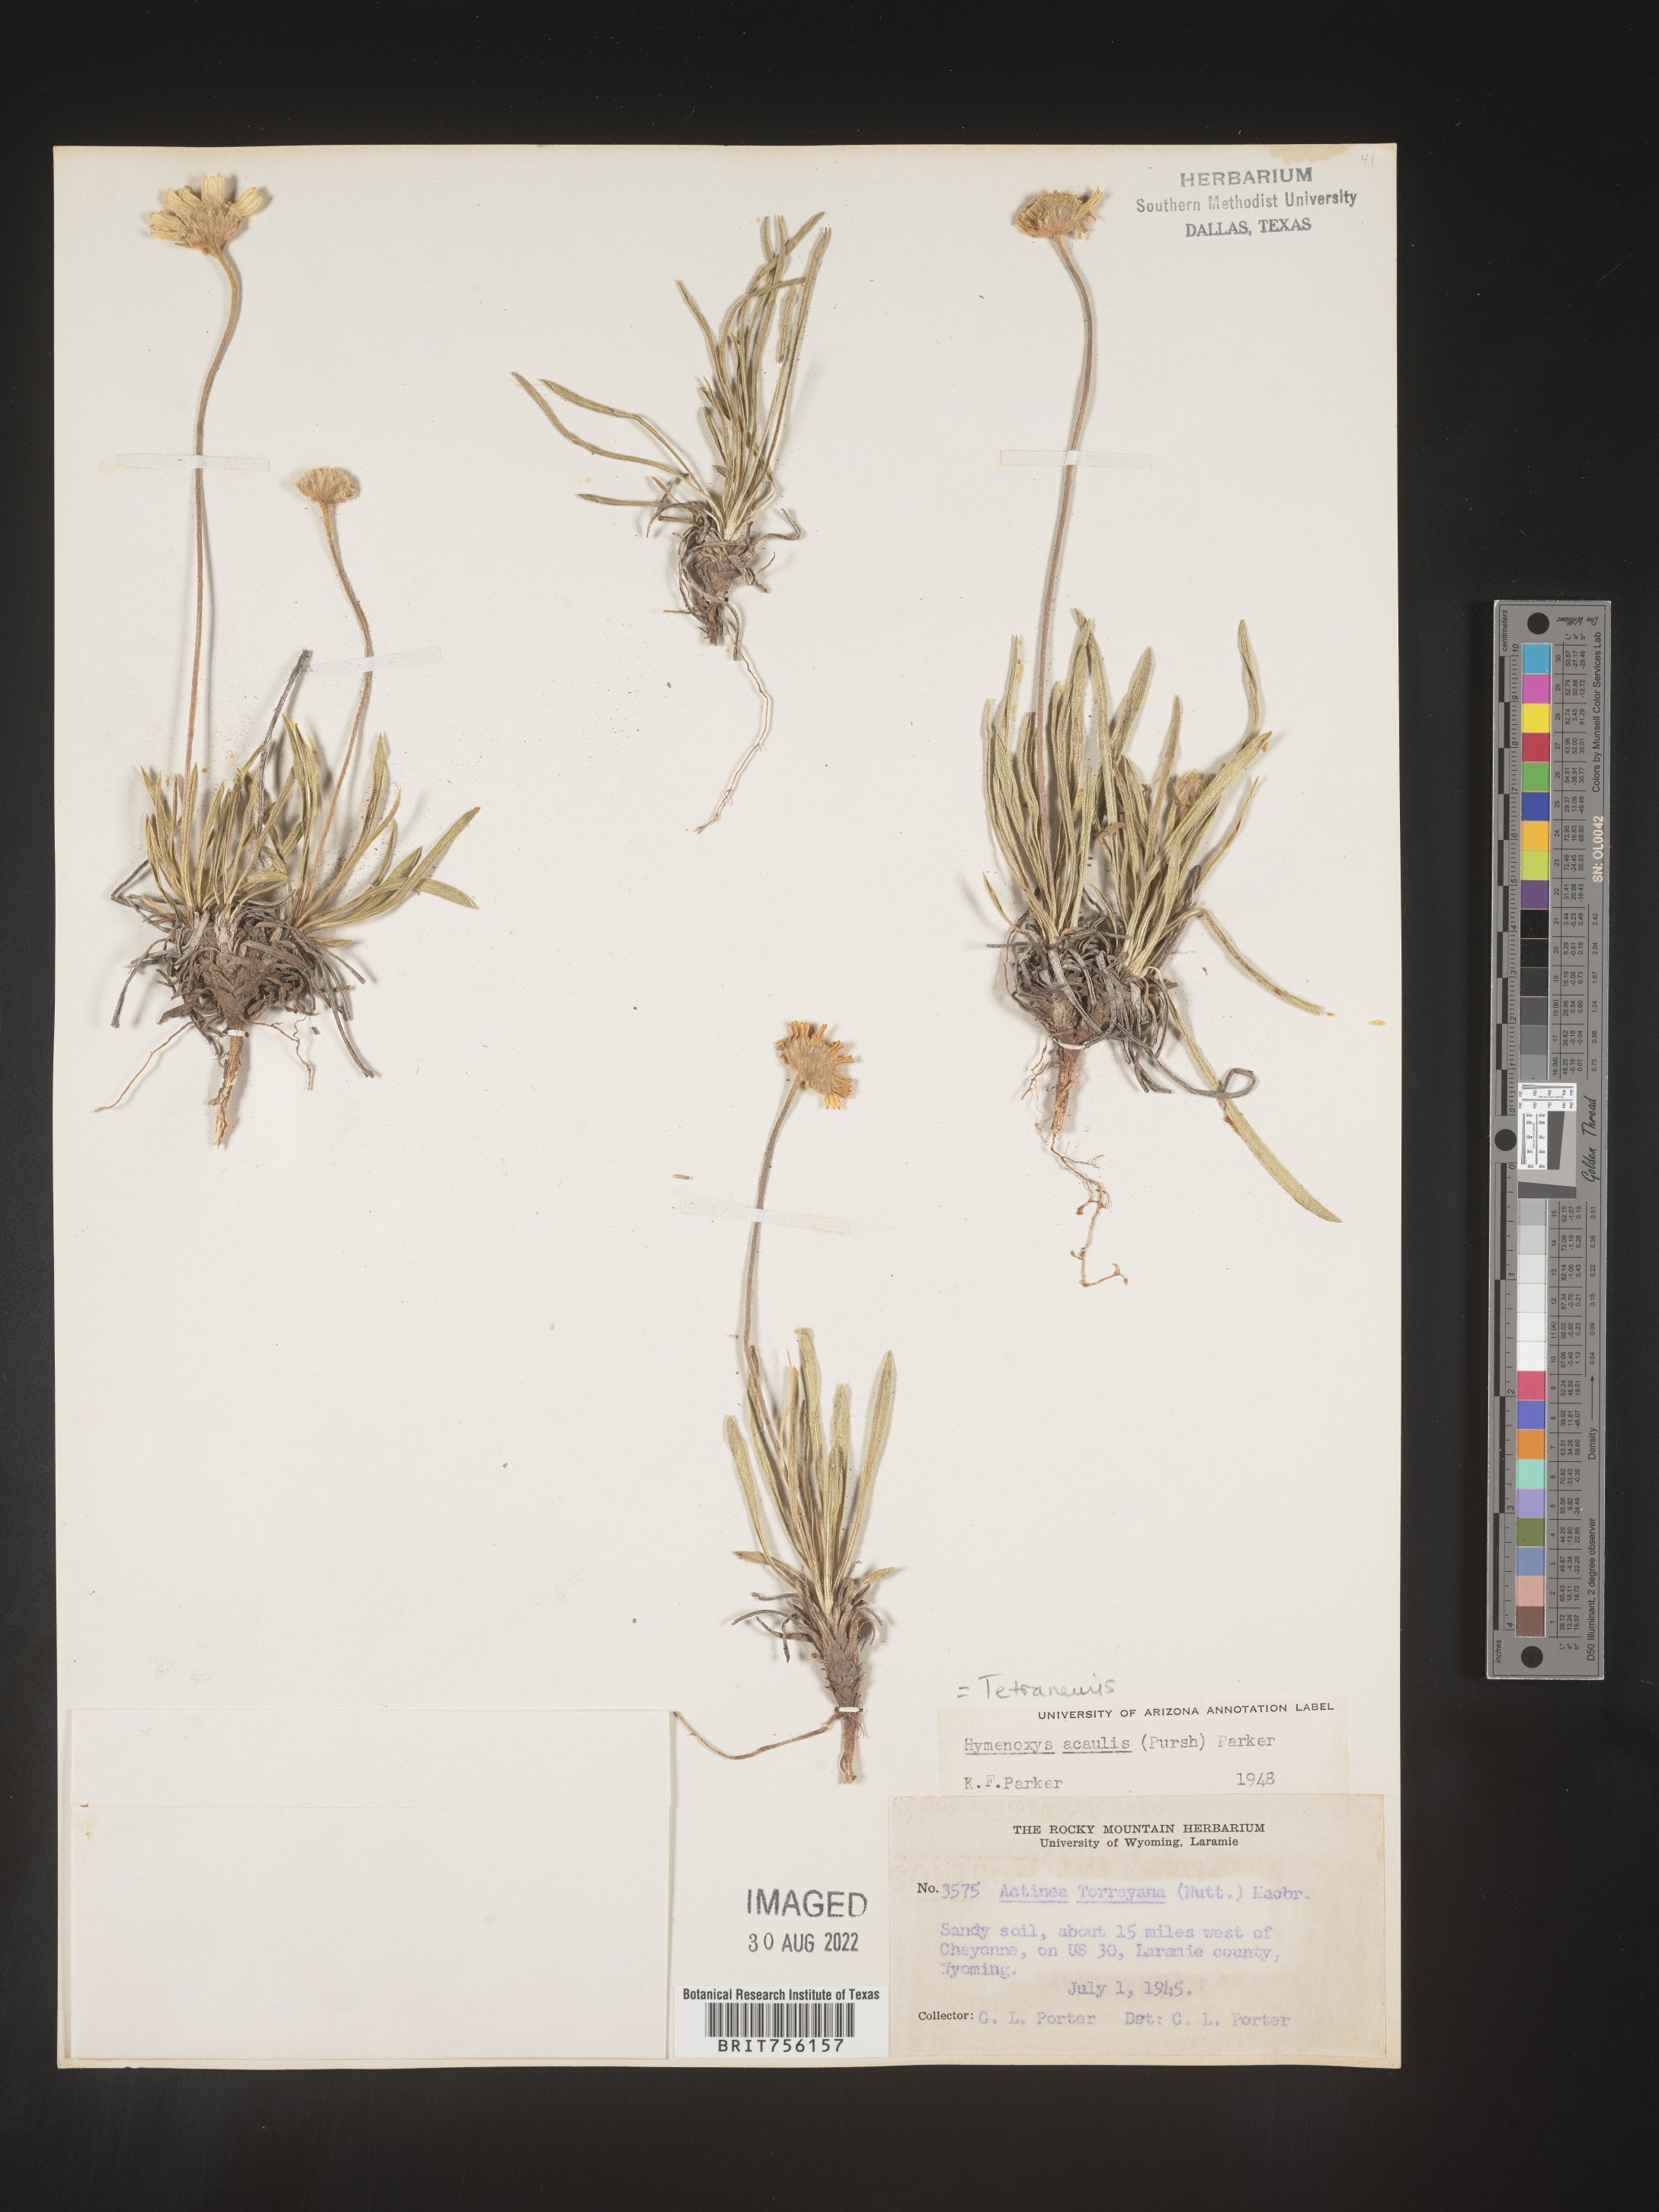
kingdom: Plantae
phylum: Tracheophyta
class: Magnoliopsida
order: Asterales
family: Asteraceae
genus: Tetraneuris
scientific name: Tetraneuris acaulis
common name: Butte marigold
